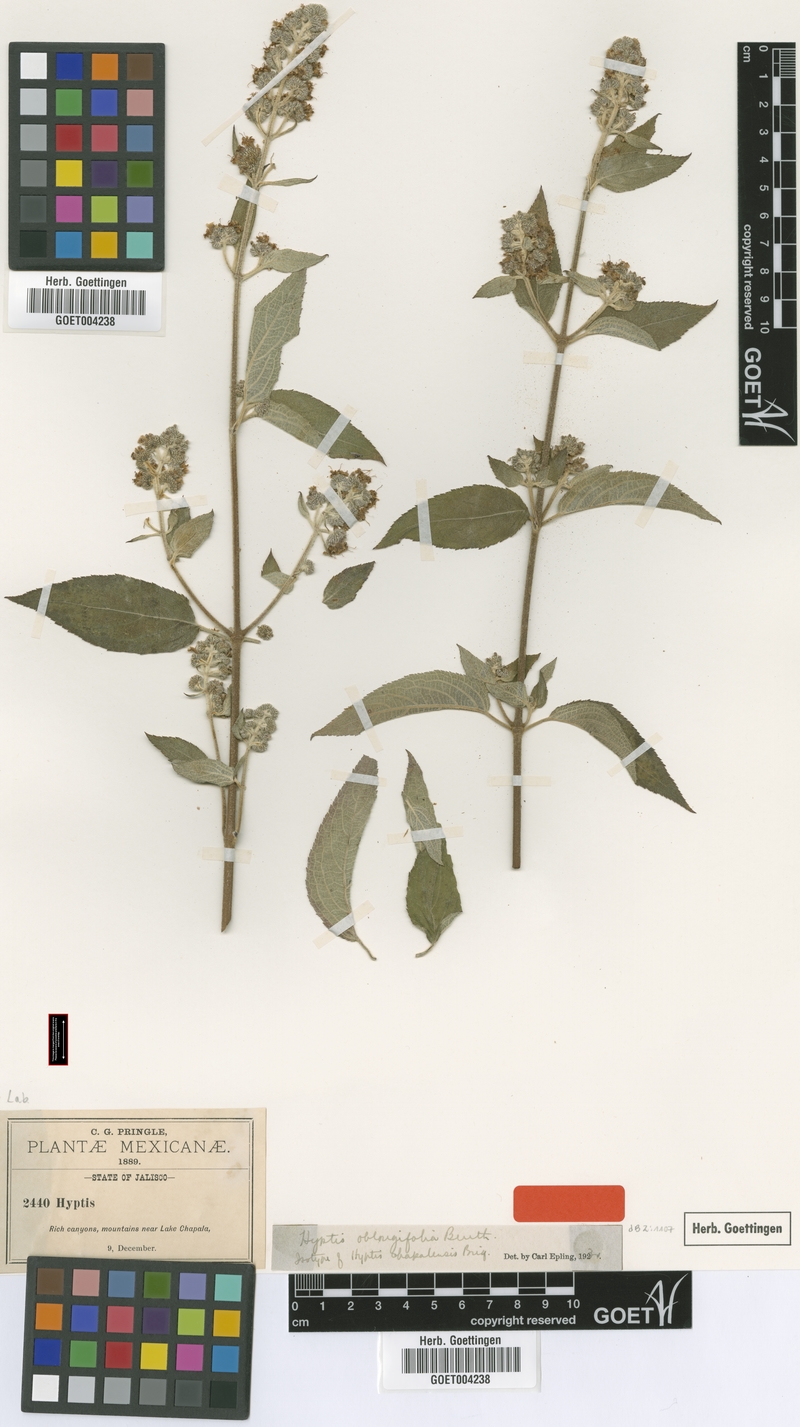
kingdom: Plantae
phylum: Tracheophyta
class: Magnoliopsida
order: Lamiales
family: Lamiaceae
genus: Mesosphaerum
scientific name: Mesosphaerum oblongifolium
